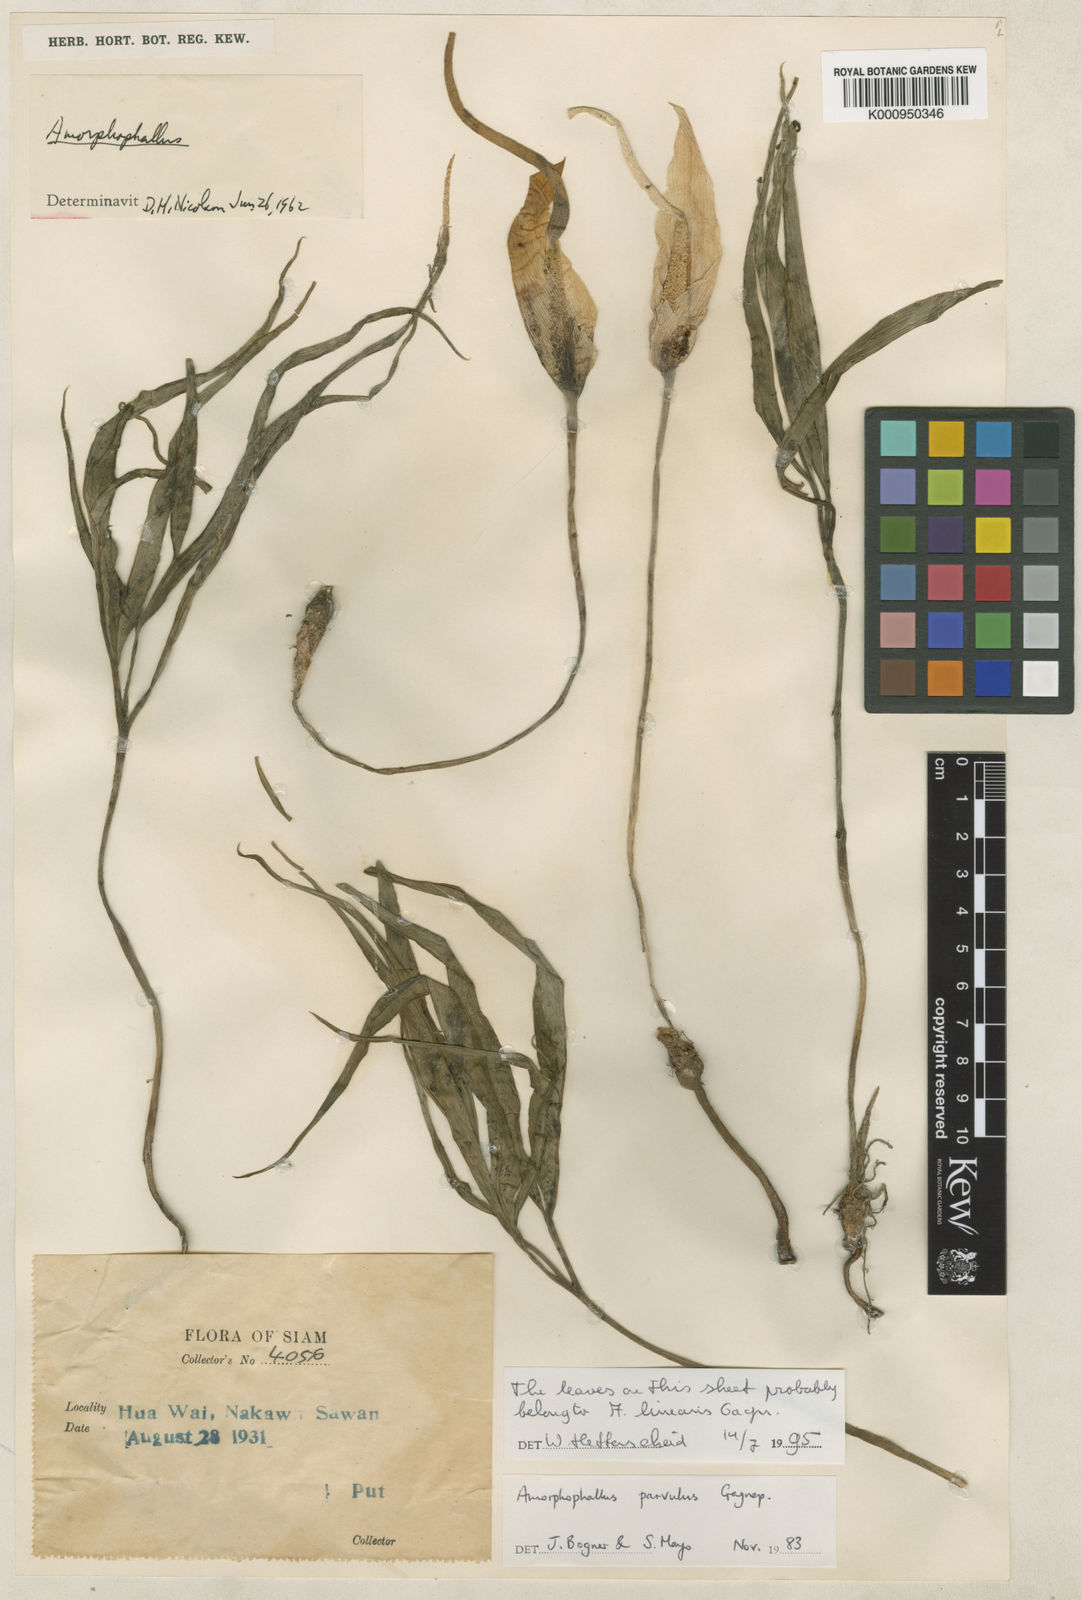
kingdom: Plantae
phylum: Tracheophyta
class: Liliopsida
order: Alismatales
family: Araceae
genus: Amorphophallus
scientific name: Amorphophallus harmandii
